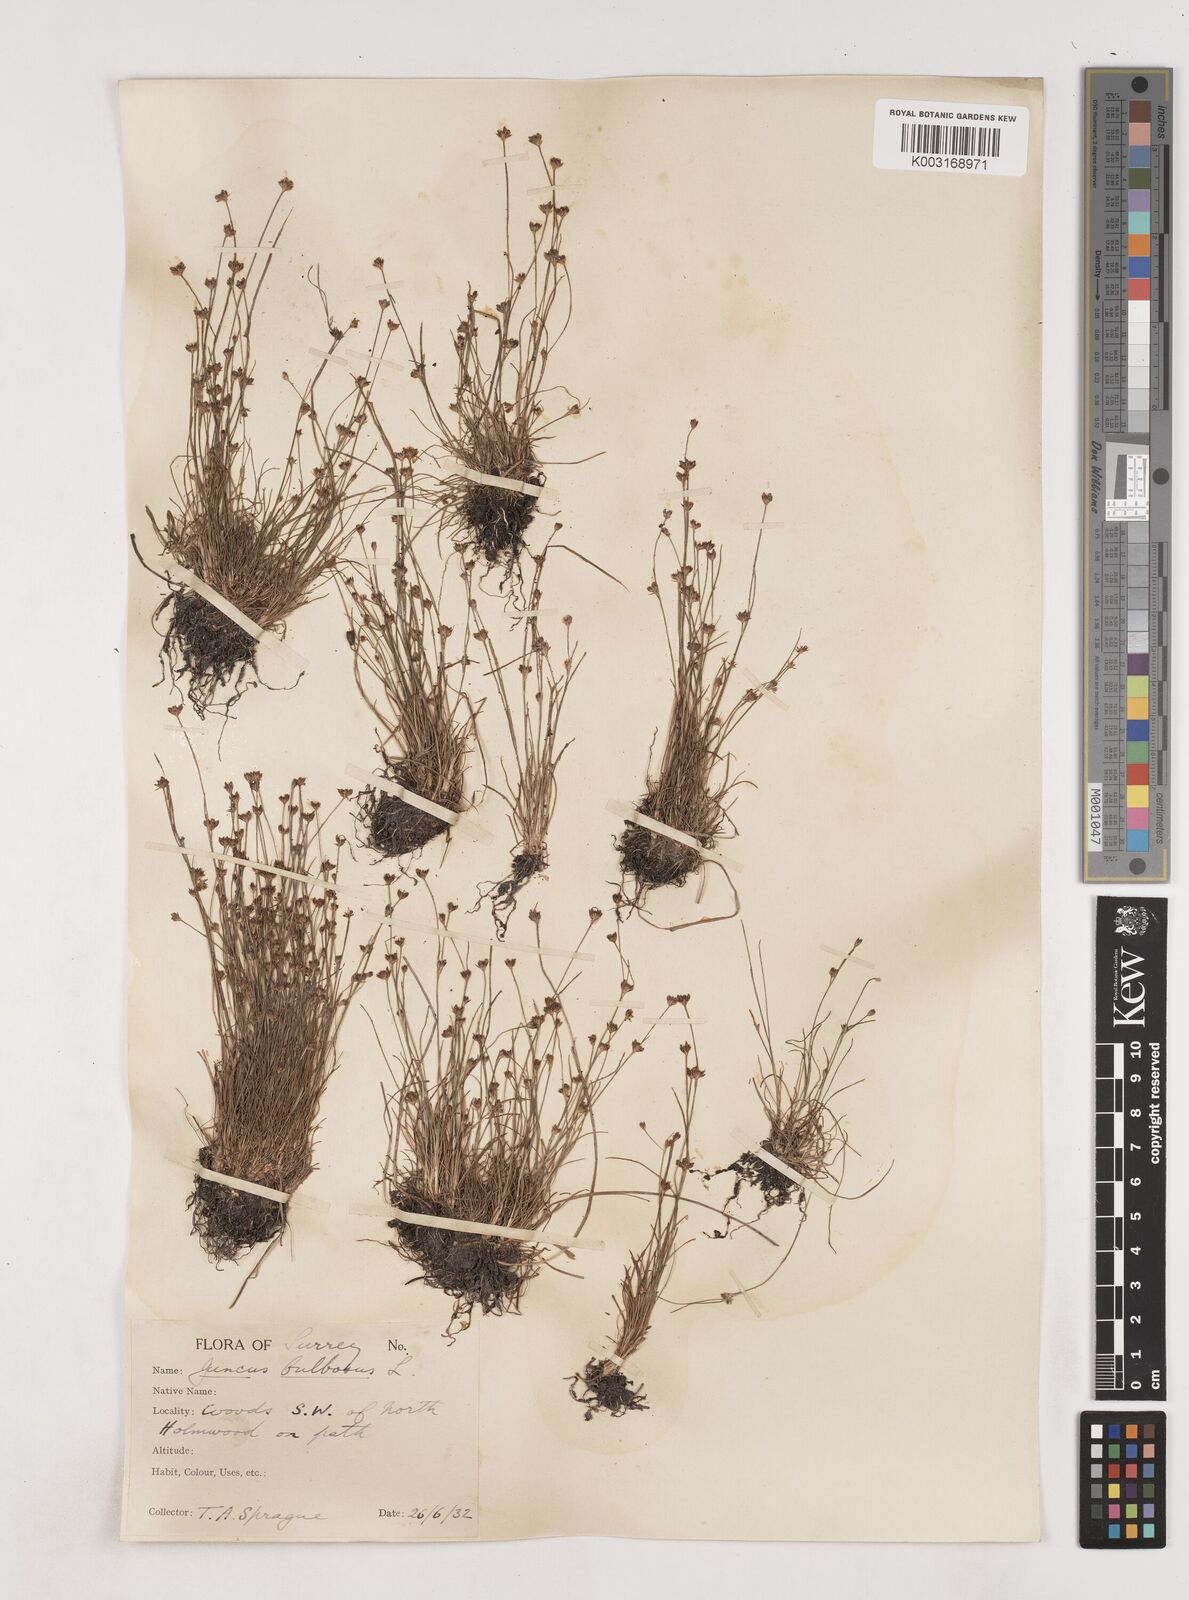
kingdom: Plantae
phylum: Tracheophyta
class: Liliopsida
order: Poales
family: Juncaceae
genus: Juncus
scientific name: Juncus bulbosus
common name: Bulbous rush
